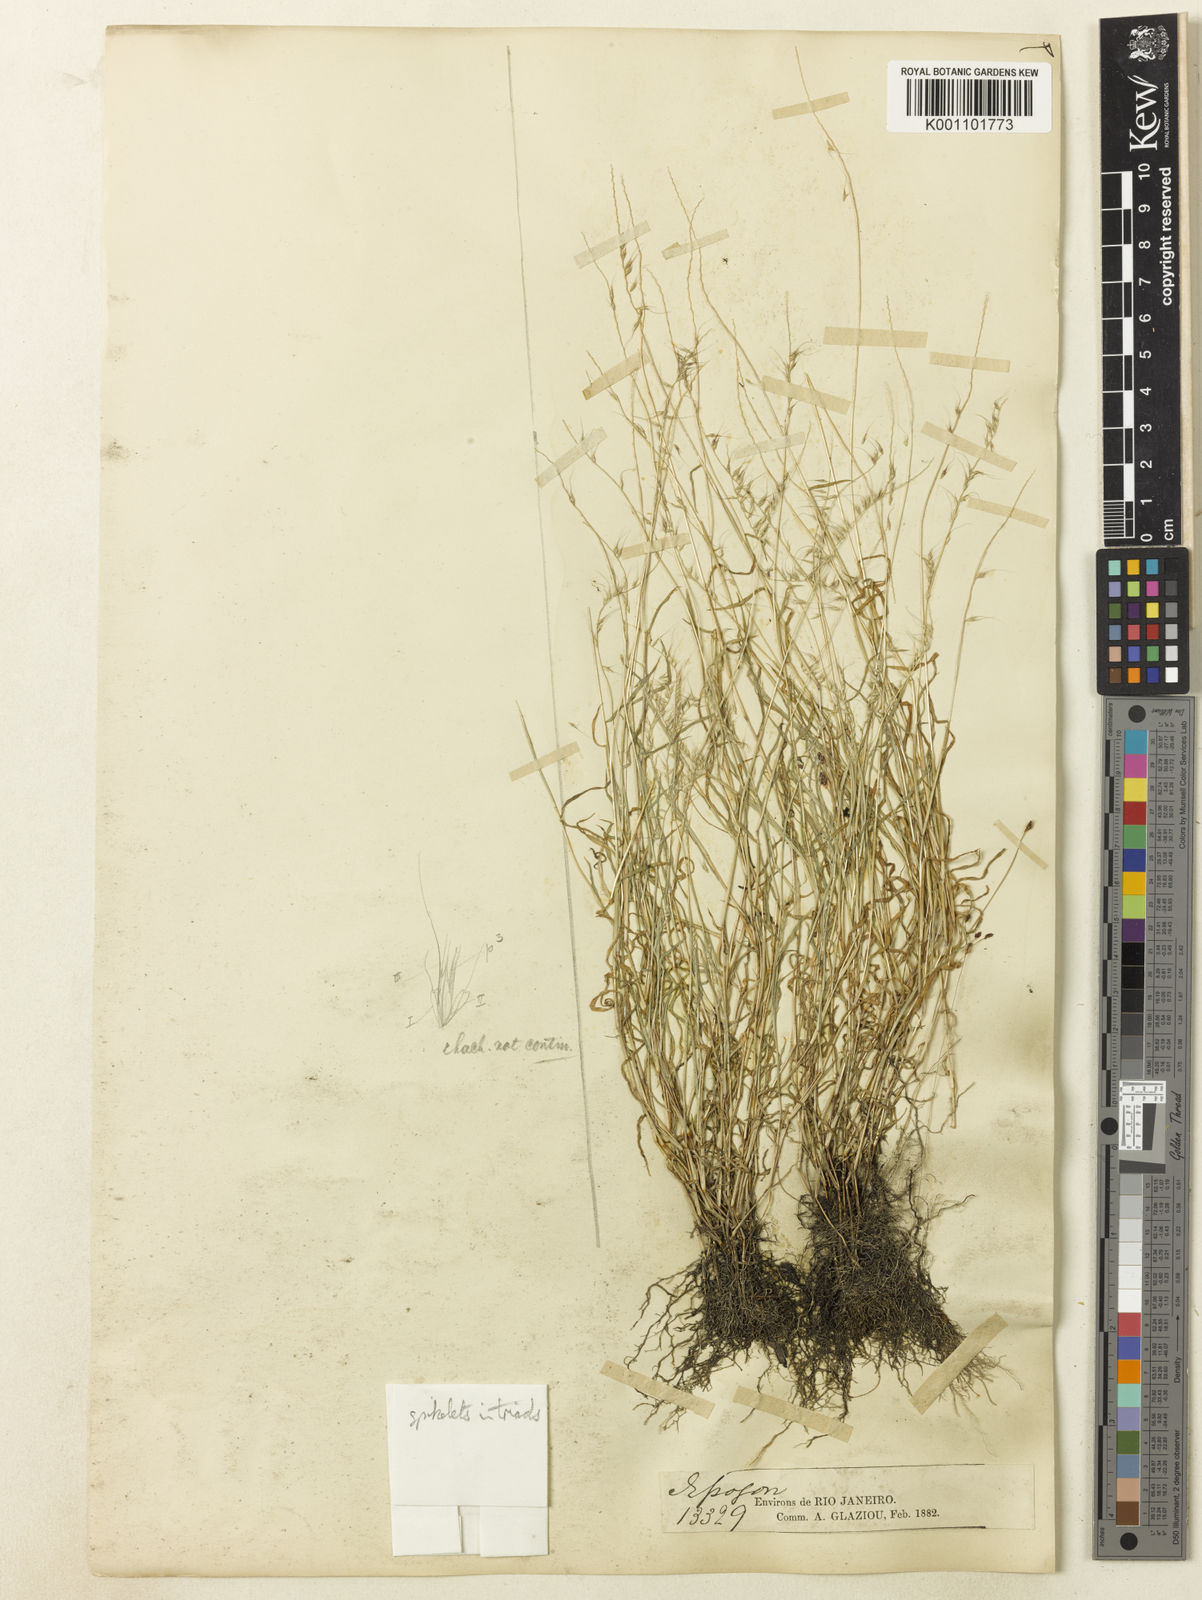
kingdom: Plantae
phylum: Tracheophyta
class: Liliopsida
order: Poales
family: Poaceae
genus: Muhlenbergia
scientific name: Muhlenbergia
